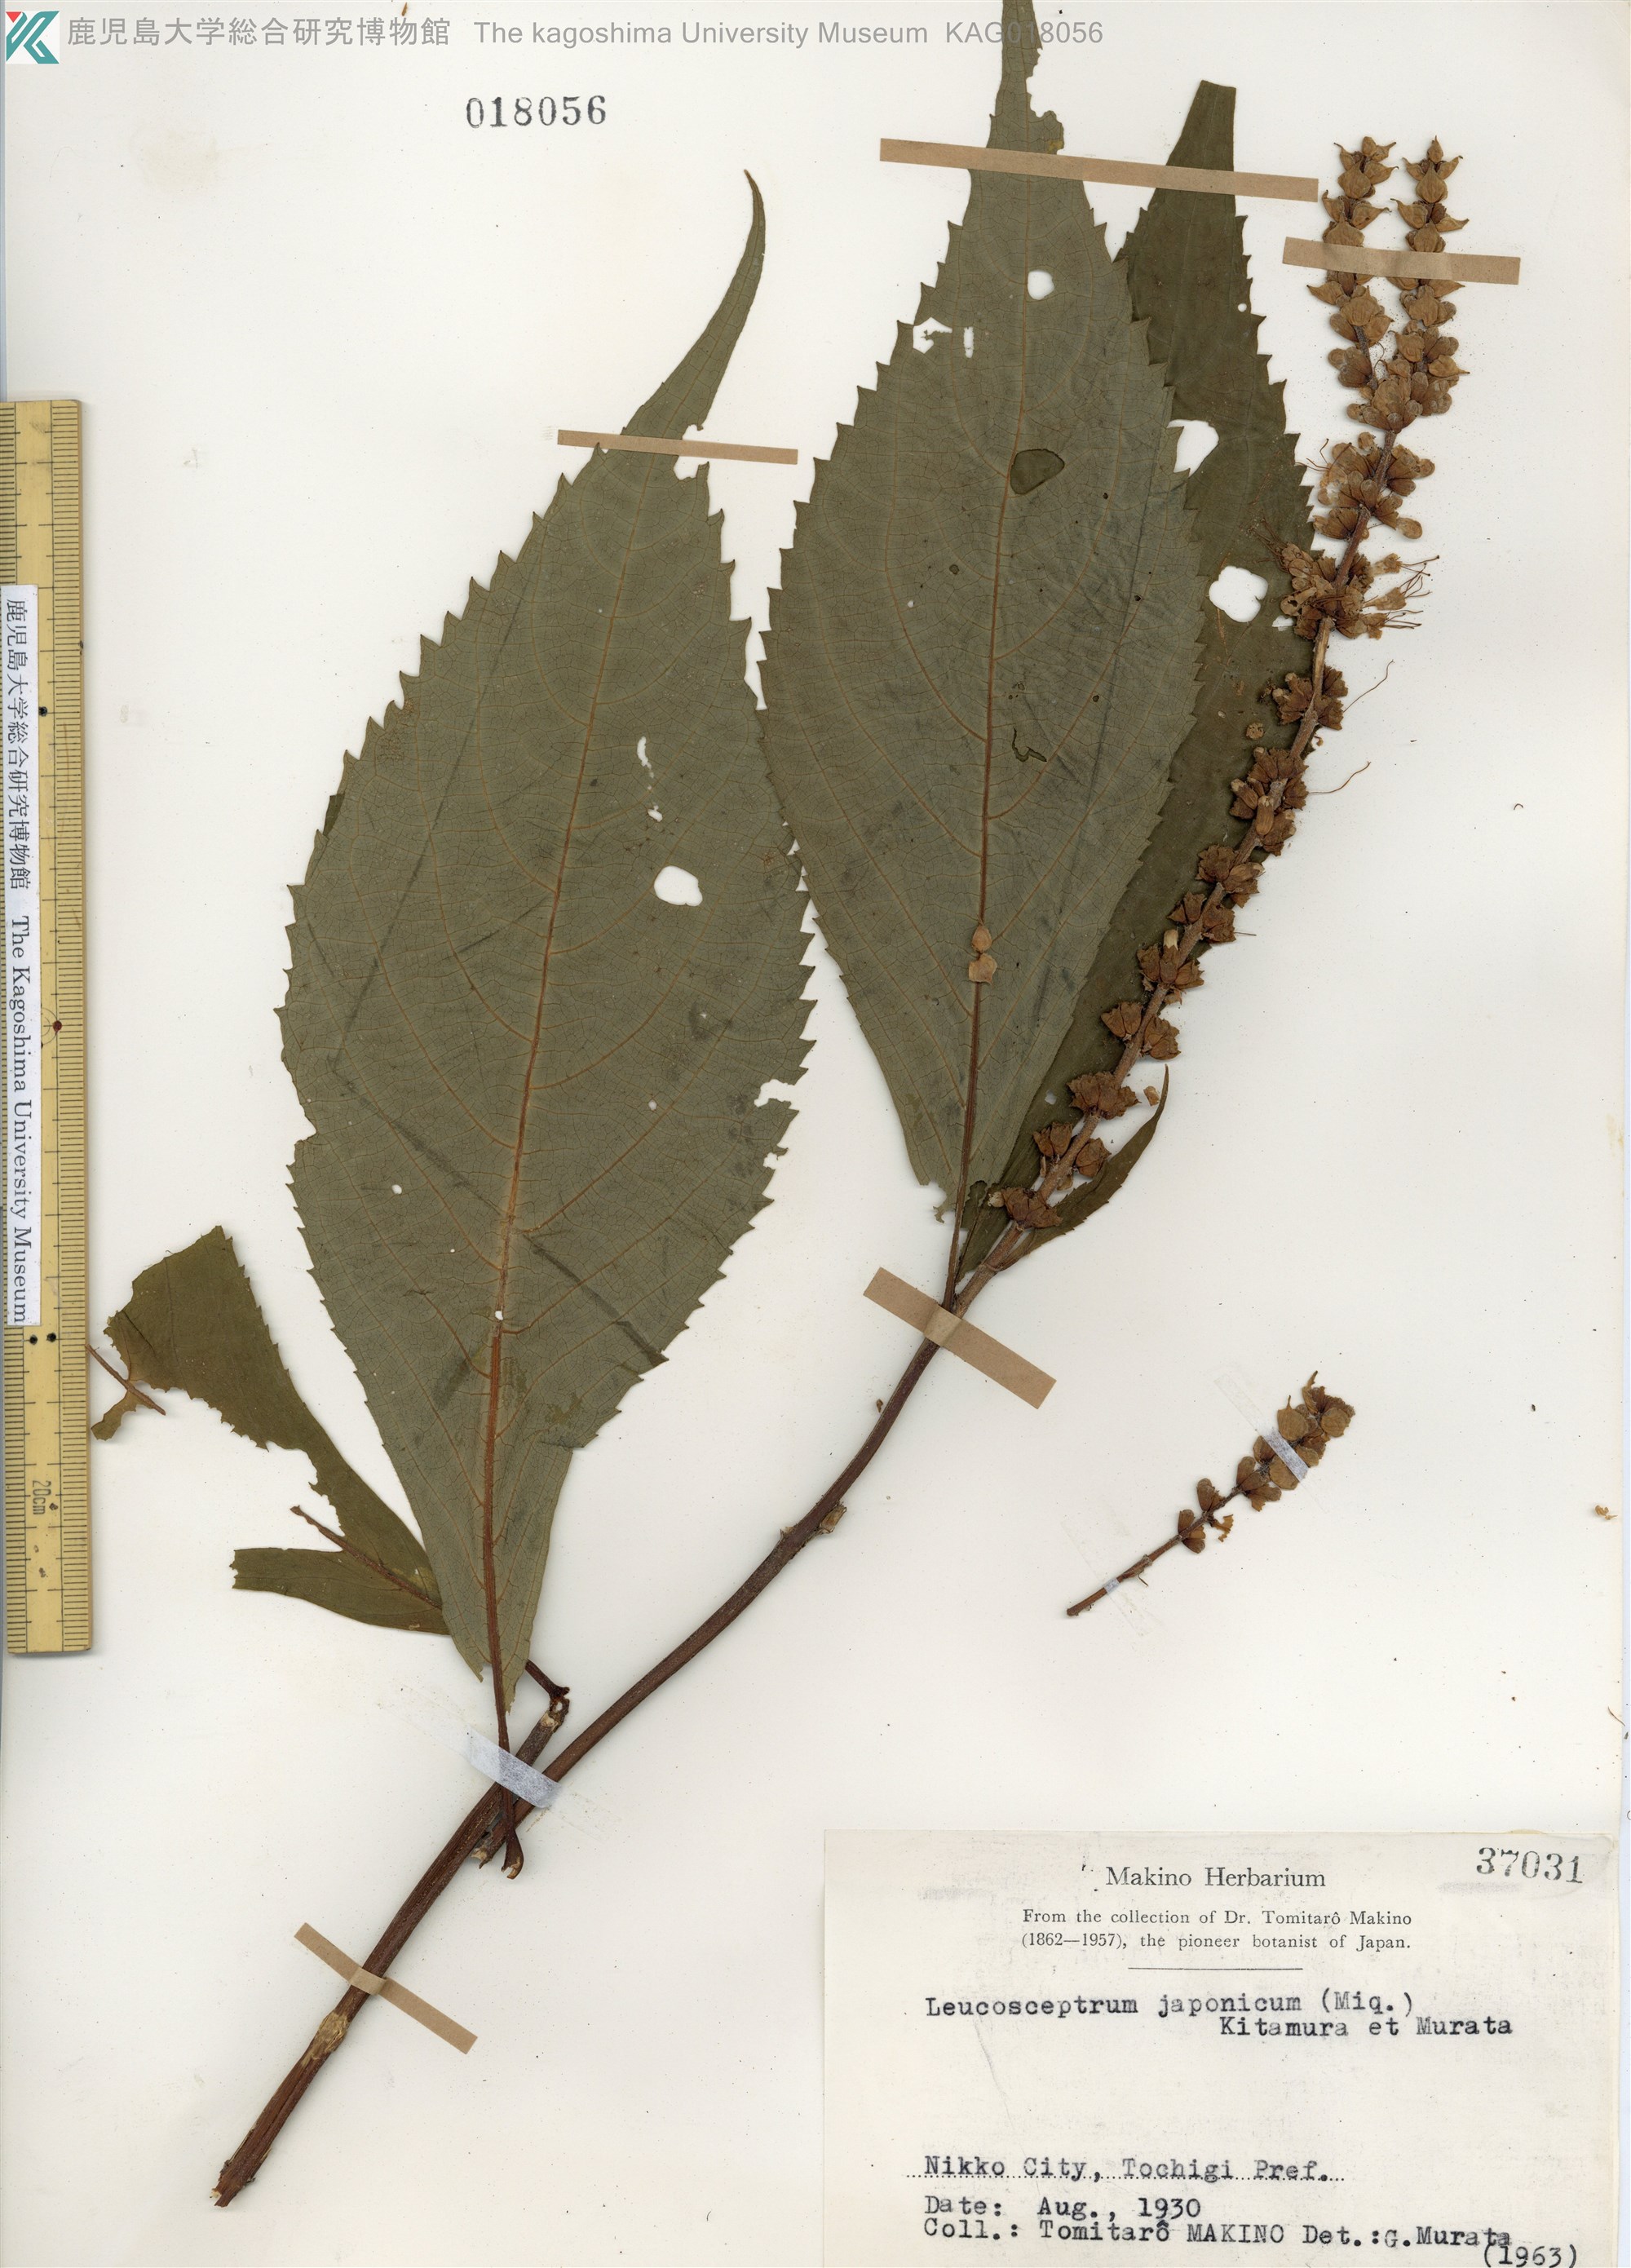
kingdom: Plantae
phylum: Tracheophyta
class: Magnoliopsida
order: Lamiales
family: Lamiaceae
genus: Comanthosphace
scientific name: Comanthosphace japonica
